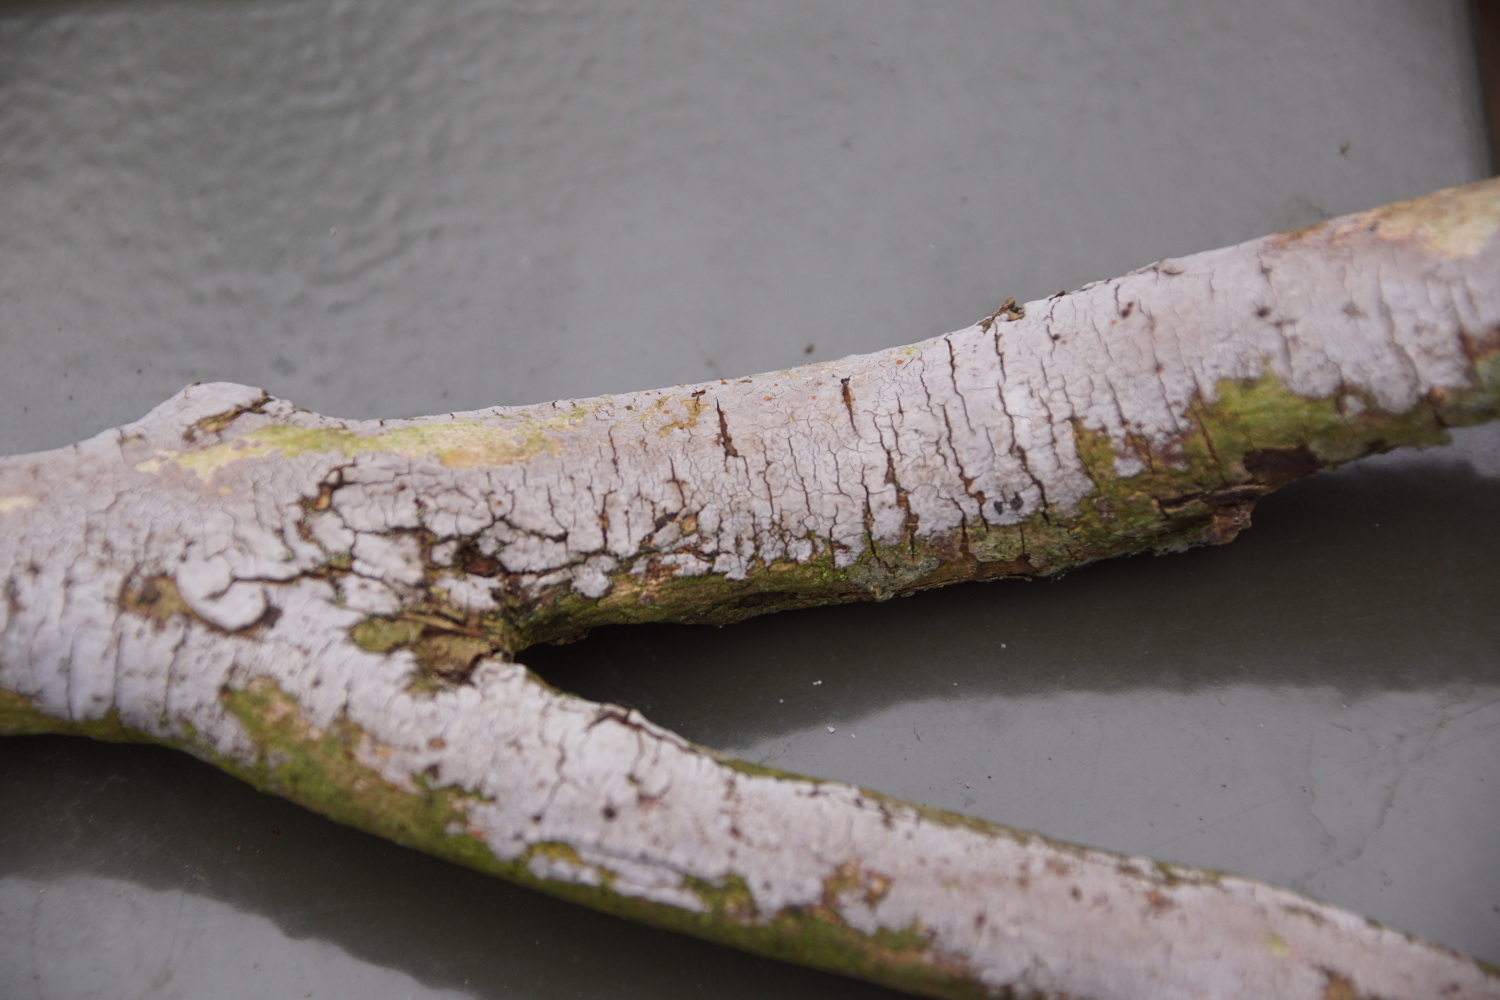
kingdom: Fungi
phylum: Basidiomycota
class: Agaricomycetes
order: Russulales
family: Peniophoraceae
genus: Peniophora
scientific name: Peniophora lycii
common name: grynet voksskind
